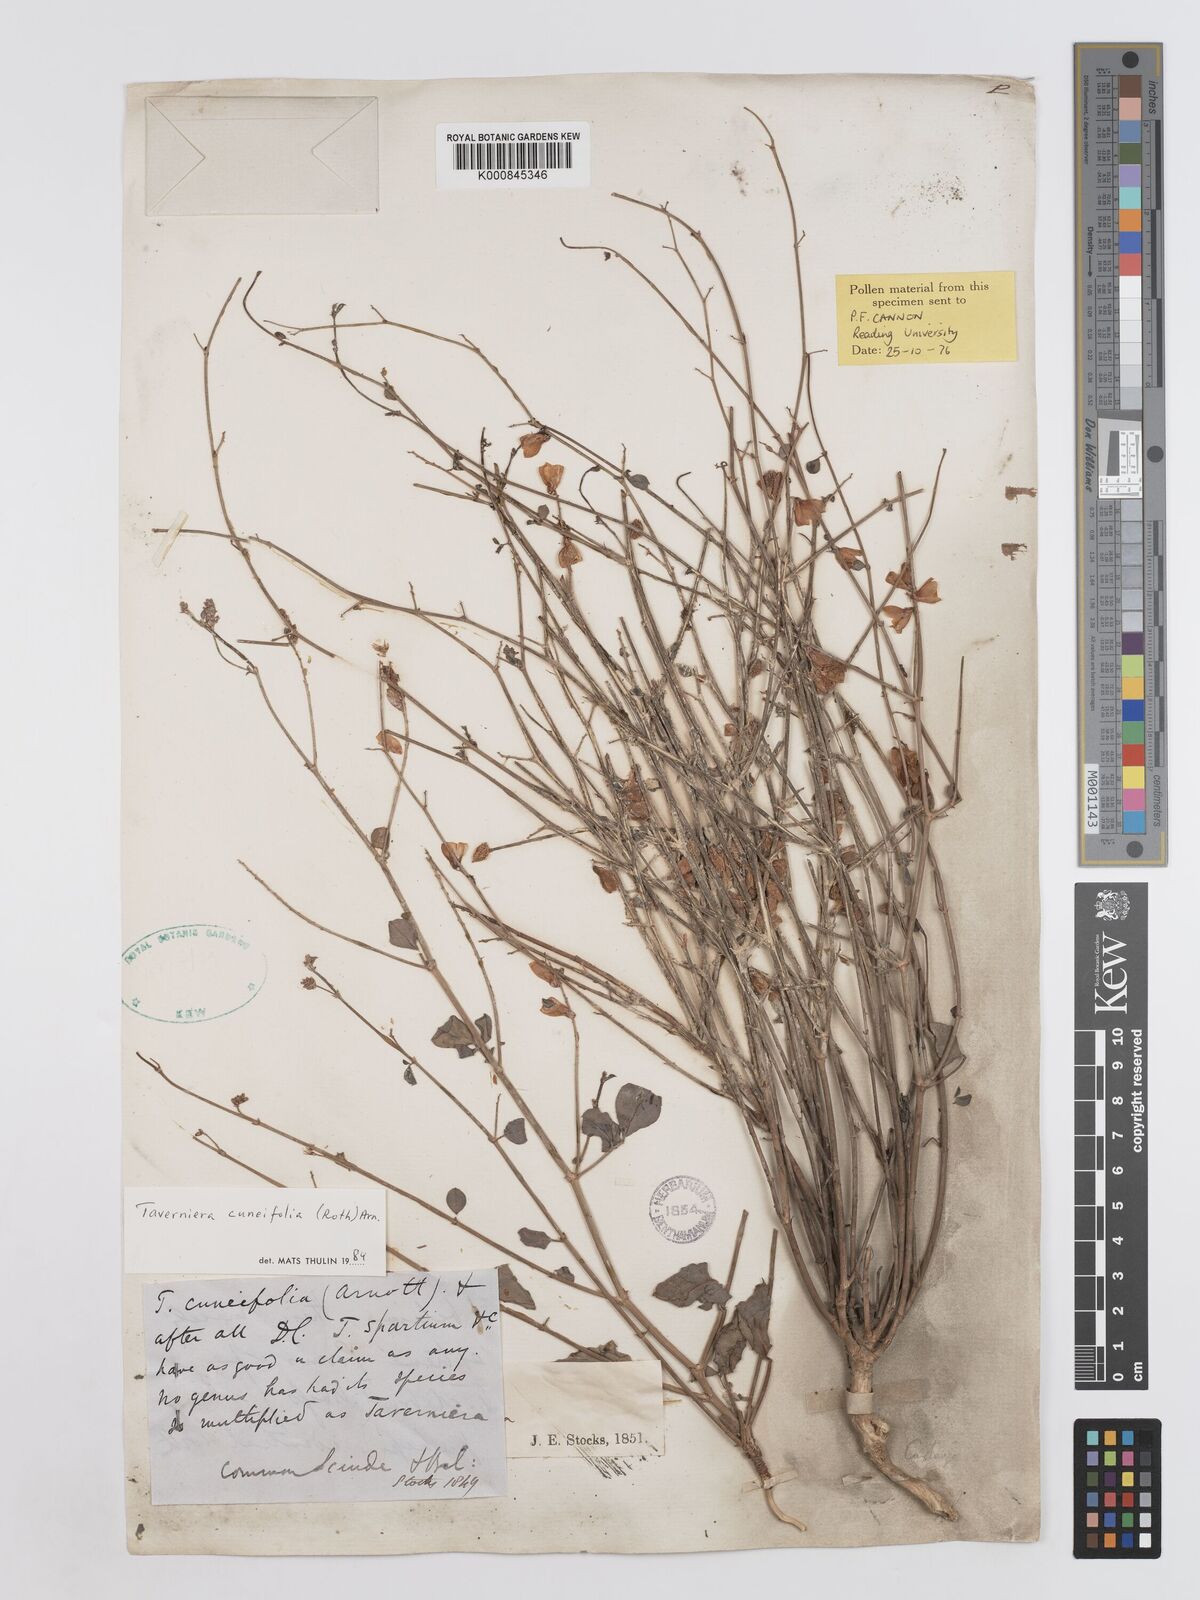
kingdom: Plantae
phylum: Tracheophyta
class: Magnoliopsida
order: Fabales
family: Fabaceae
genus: Taverniera
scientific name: Taverniera cuneifolia
